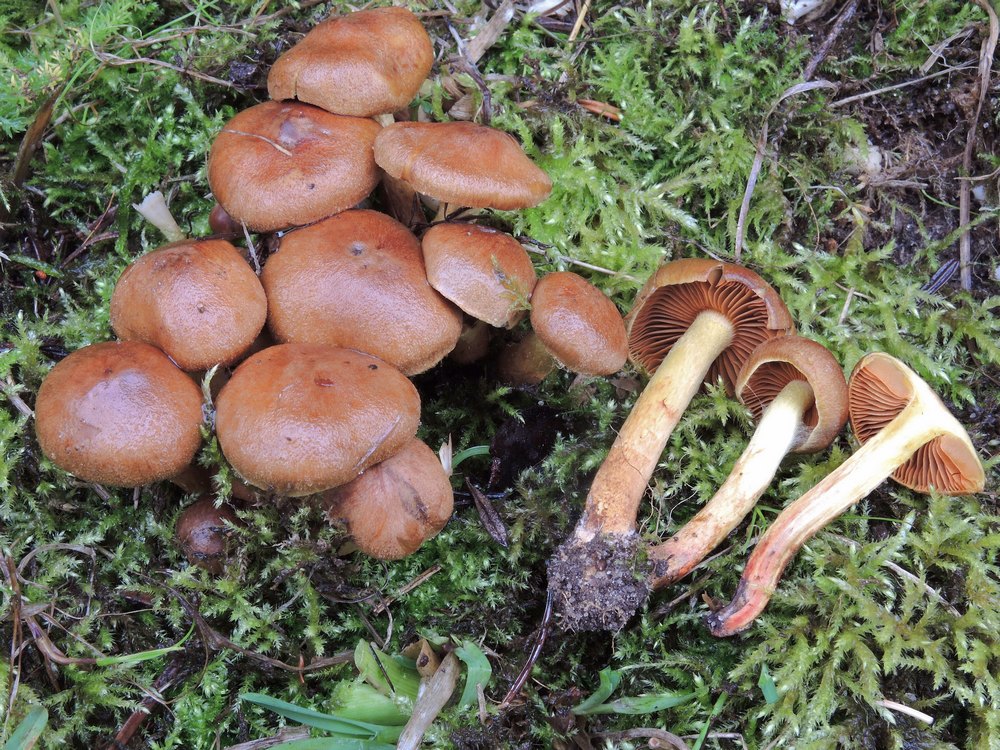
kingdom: Fungi
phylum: Basidiomycota
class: Agaricomycetes
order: Agaricales
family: Cortinariaceae
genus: Cortinarius
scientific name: Cortinarius cinnamomeus
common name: kanel-slørhat
